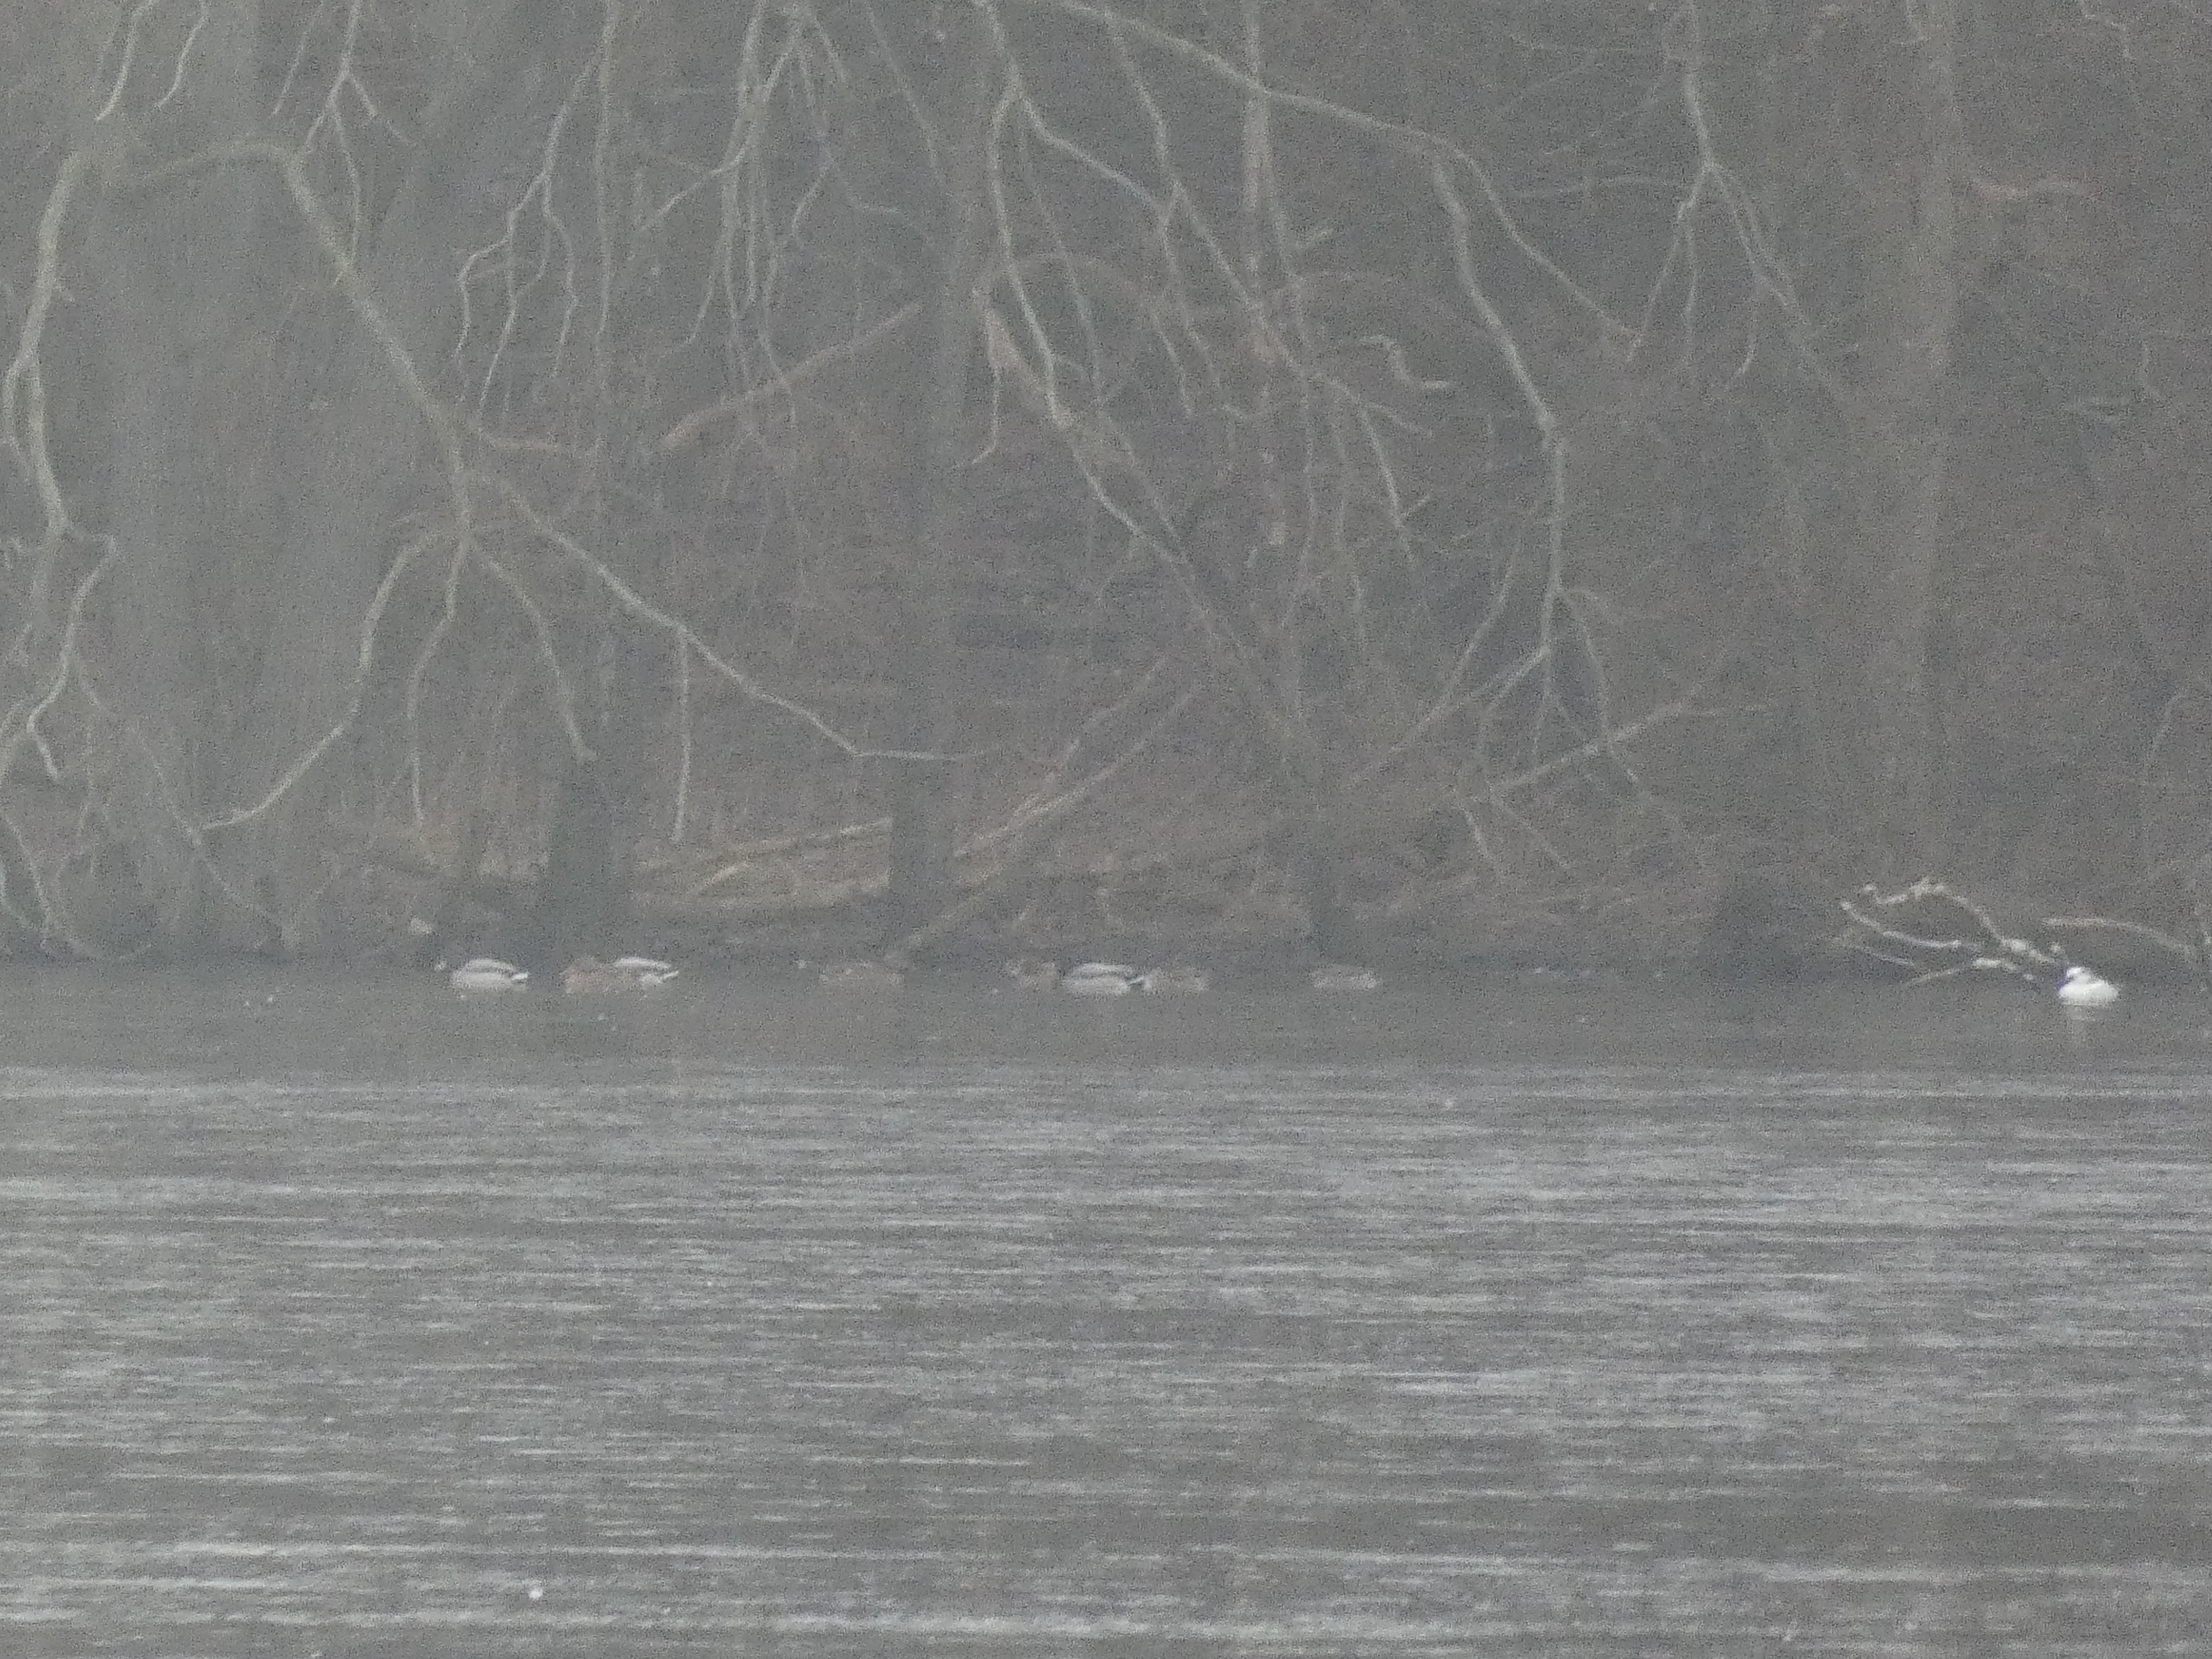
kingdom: Animalia
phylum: Chordata
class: Aves
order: Anseriformes
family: Anatidae
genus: Anas
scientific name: Anas platyrhynchos
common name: Gråand
